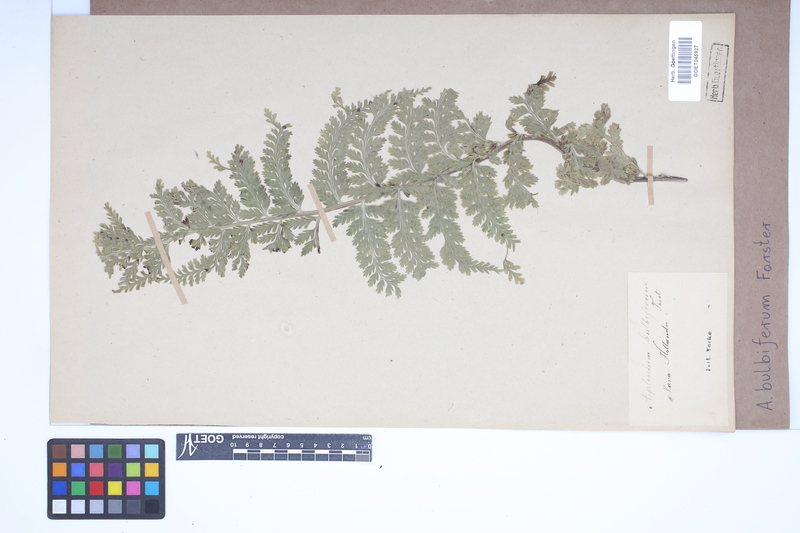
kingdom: Plantae
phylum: Tracheophyta
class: Polypodiopsida
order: Polypodiales
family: Aspleniaceae
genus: Asplenium
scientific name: Asplenium bulbiferum
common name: Mother fern
